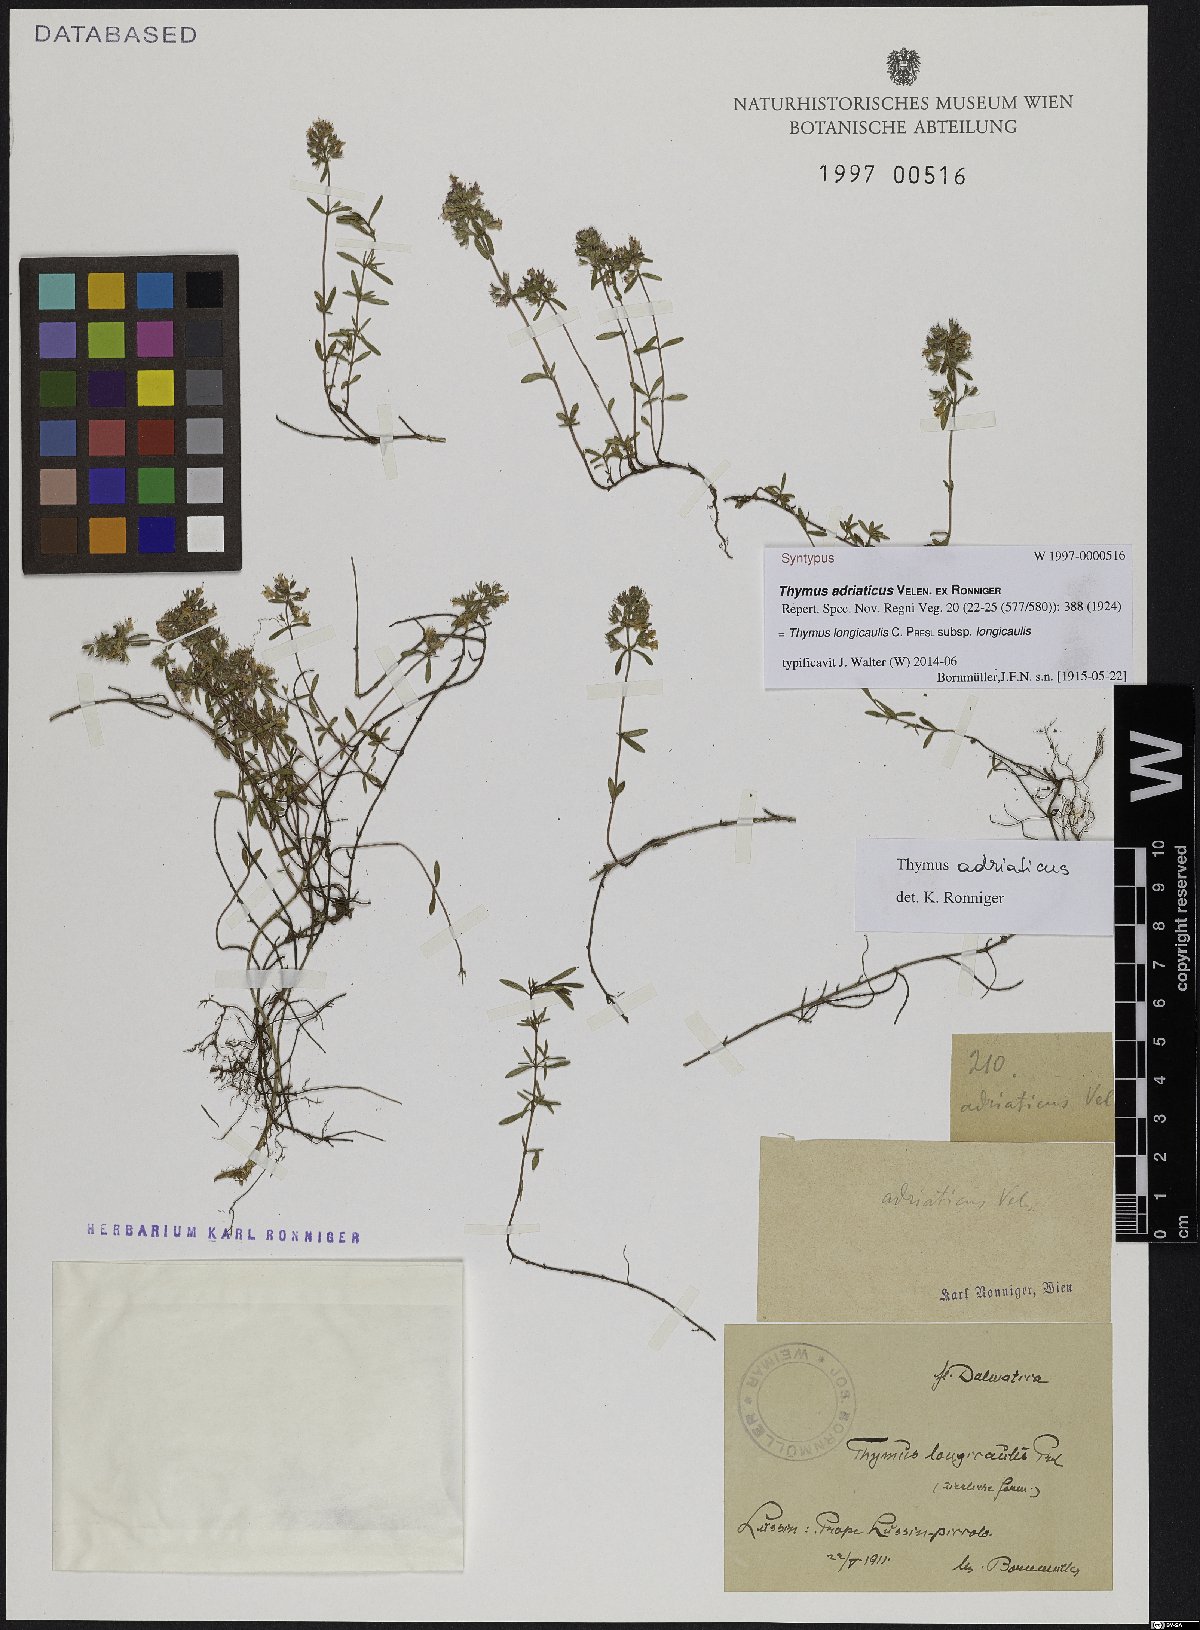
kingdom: Plantae
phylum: Tracheophyta
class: Magnoliopsida
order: Lamiales
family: Lamiaceae
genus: Thymus
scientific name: Thymus longicaulis
